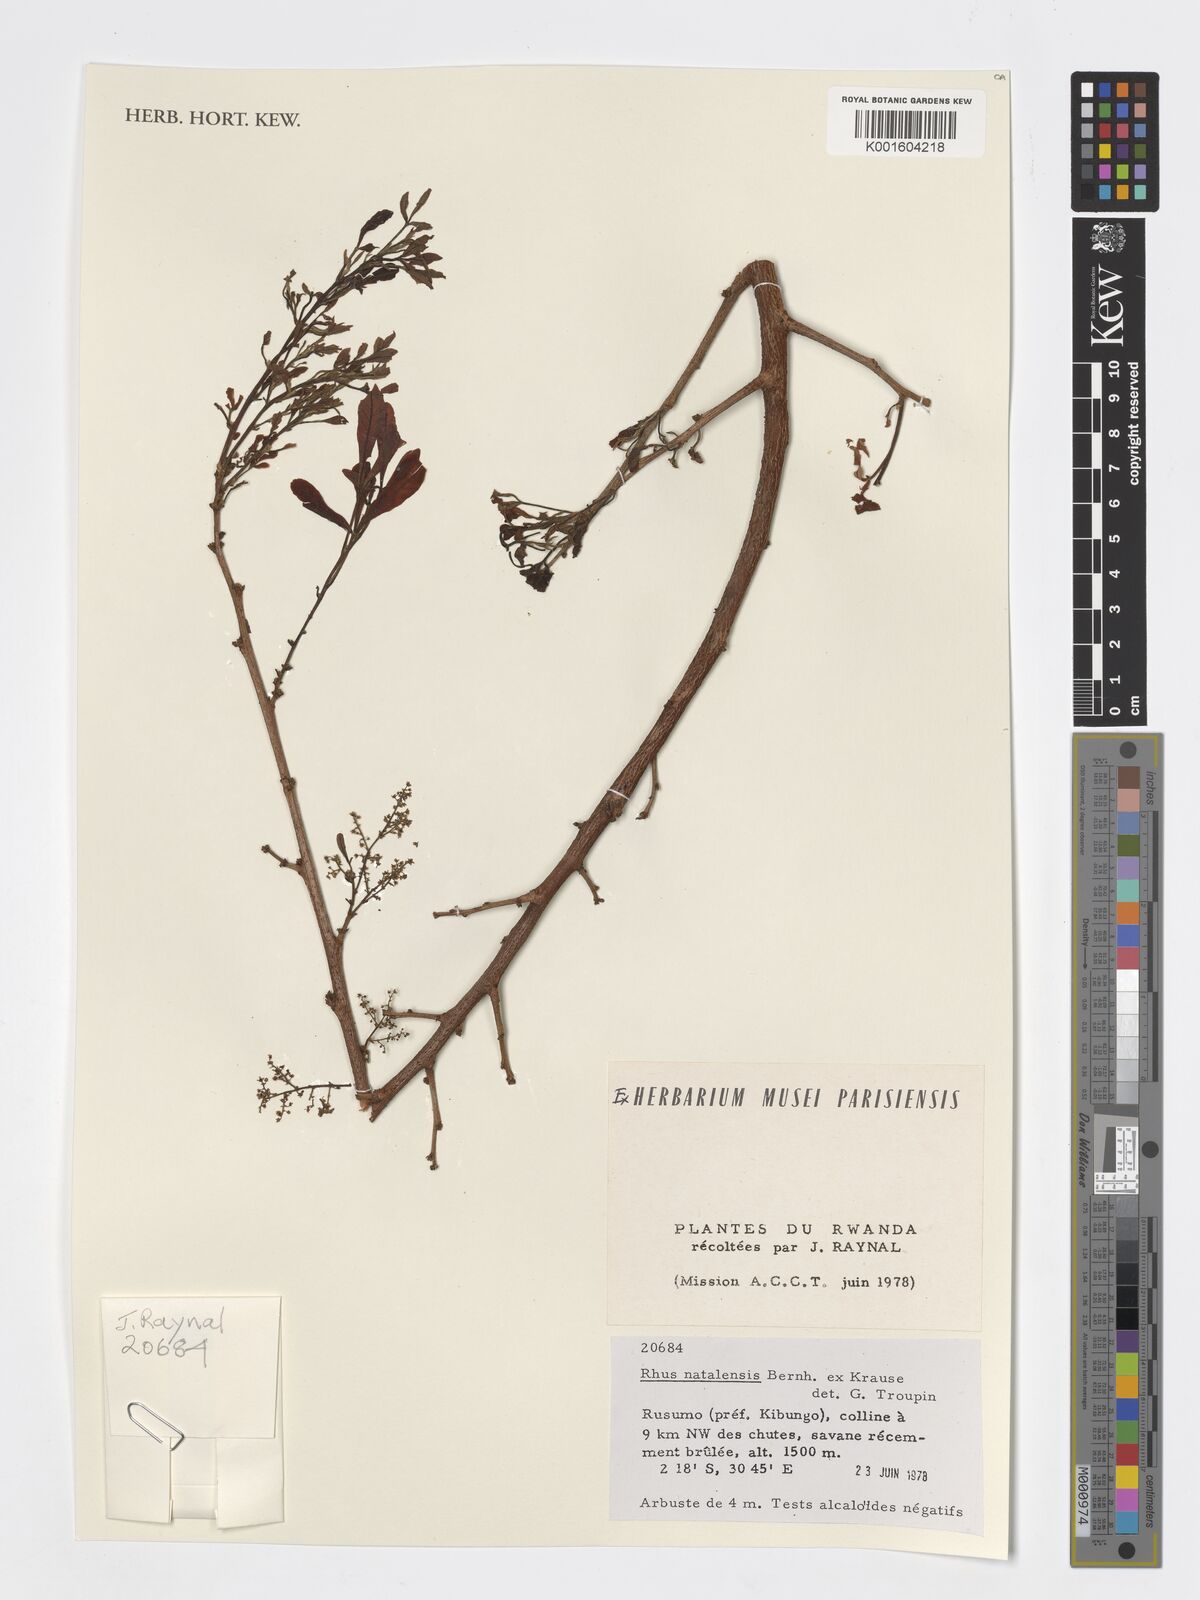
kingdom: Plantae
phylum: Tracheophyta
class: Magnoliopsida
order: Sapindales
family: Anacardiaceae
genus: Searsia
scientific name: Searsia natalensis
